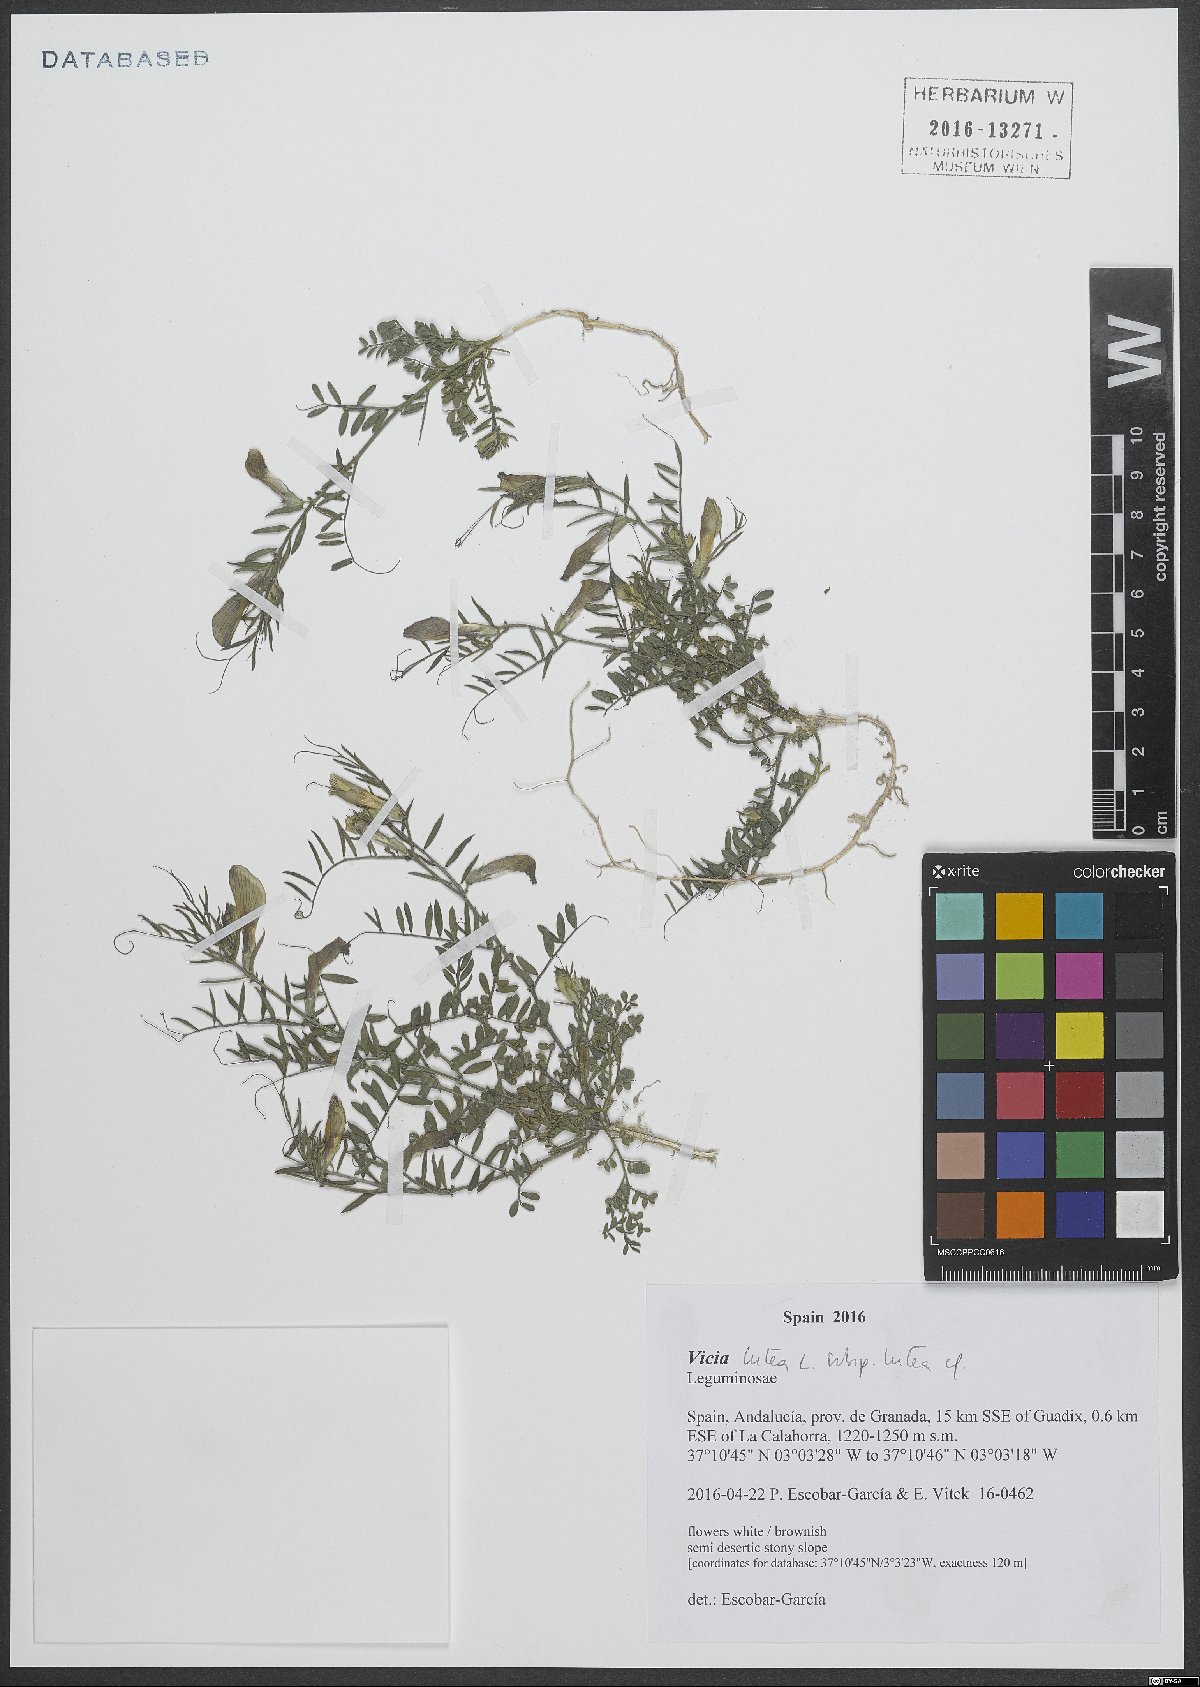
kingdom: Plantae
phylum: Tracheophyta
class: Magnoliopsida
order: Fabales
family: Fabaceae
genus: Vicia
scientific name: Vicia lutea
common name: Smooth yellow vetch
